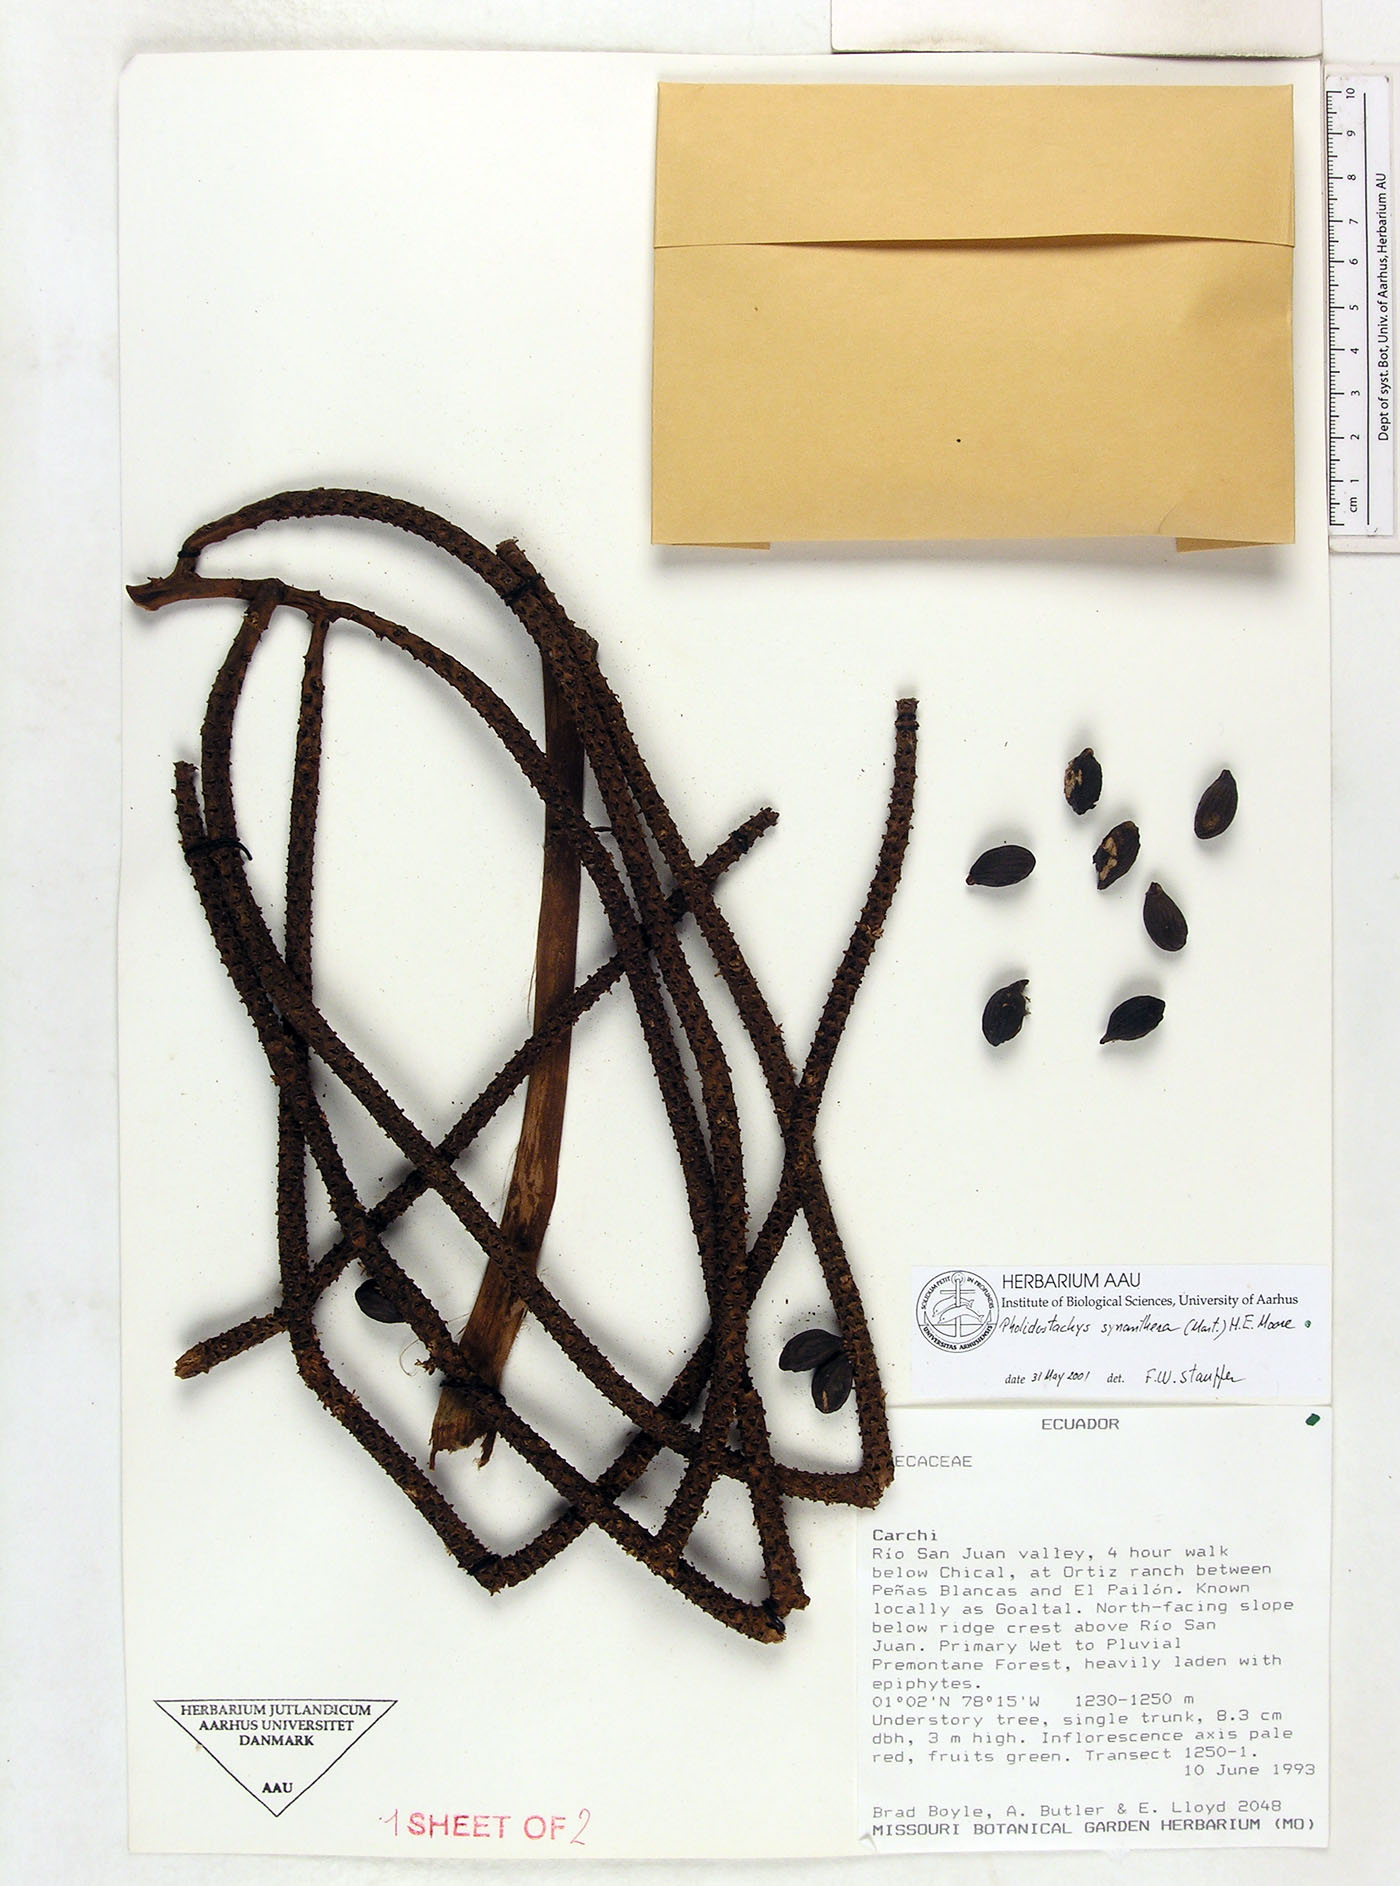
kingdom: Plantae
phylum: Tracheophyta
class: Liliopsida
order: Arecales
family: Arecaceae
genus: Pholidostachys
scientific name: Pholidostachys occidentalis
